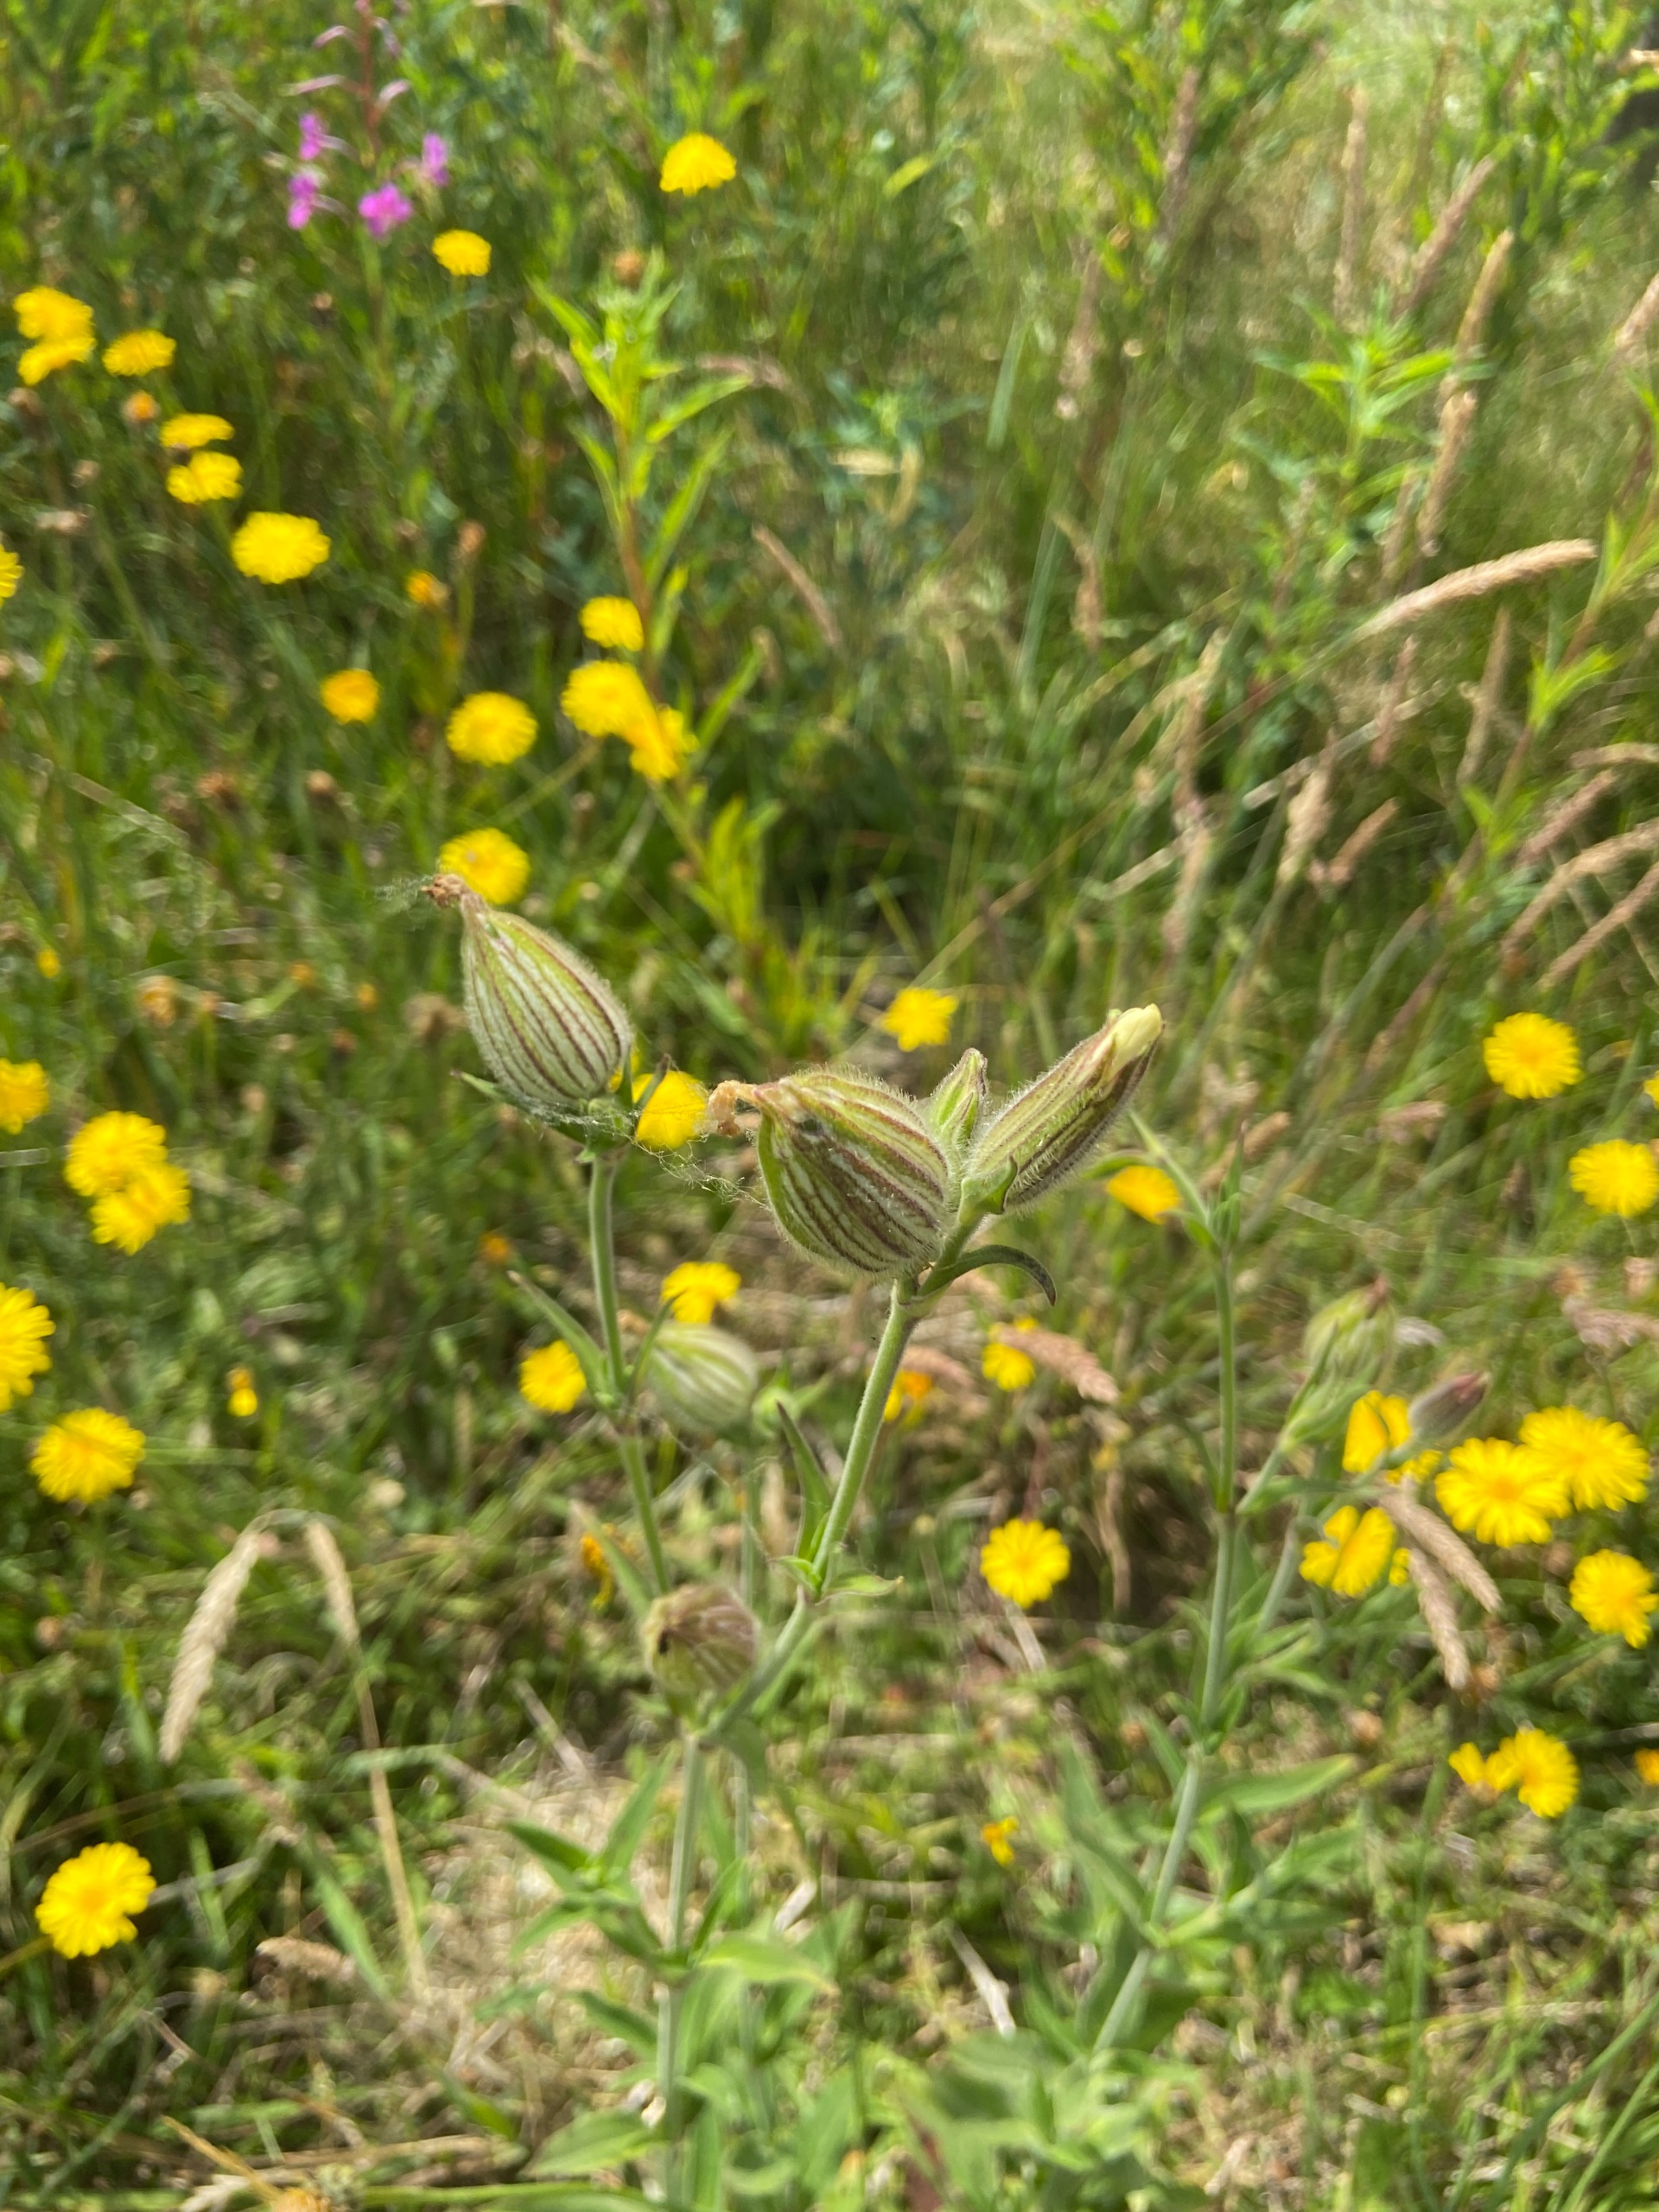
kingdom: Plantae
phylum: Tracheophyta
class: Magnoliopsida
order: Caryophyllales
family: Caryophyllaceae
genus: Silene
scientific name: Silene latifolia
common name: Aftenpragtstjerne
